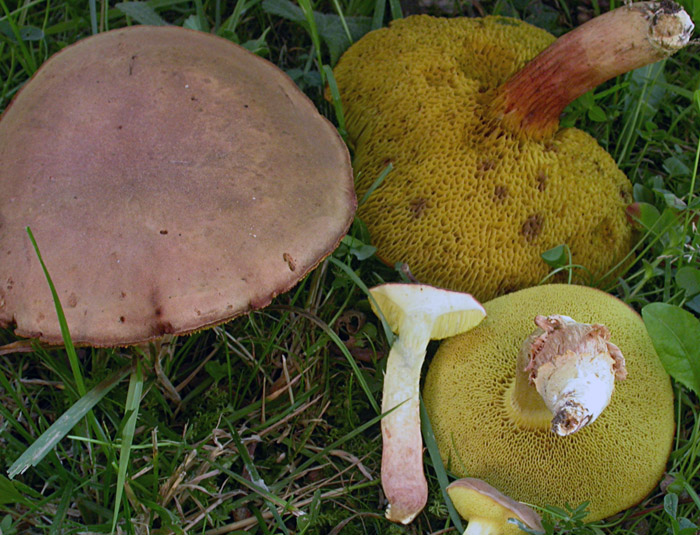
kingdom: Fungi
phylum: Basidiomycota
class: Agaricomycetes
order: Boletales
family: Boletaceae
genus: Xerocomus
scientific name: Xerocomus ferrugineus
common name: vaskeskinds-rørhat
